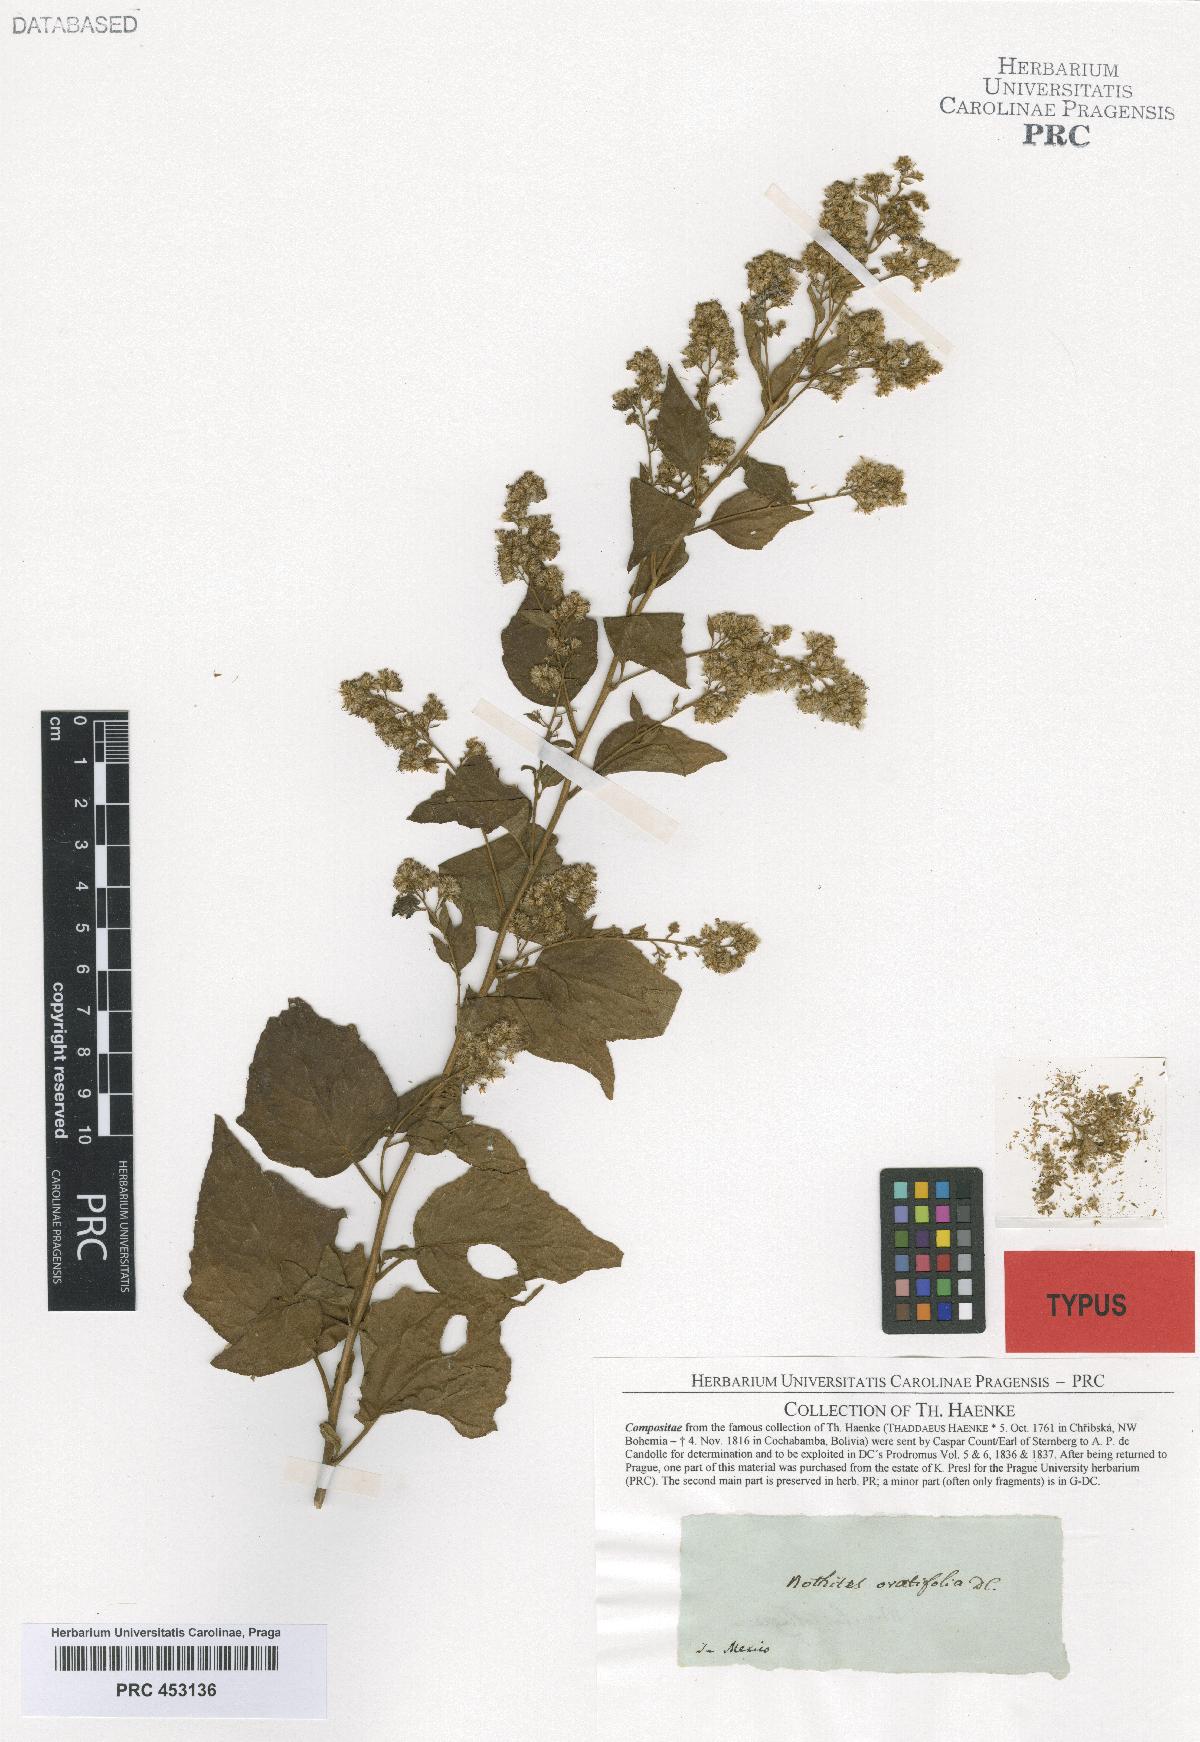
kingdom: Plantae
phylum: Tracheophyta
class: Magnoliopsida
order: Asterales
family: Asteraceae
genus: Decachaeta
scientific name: Decachaeta ovatifolia
